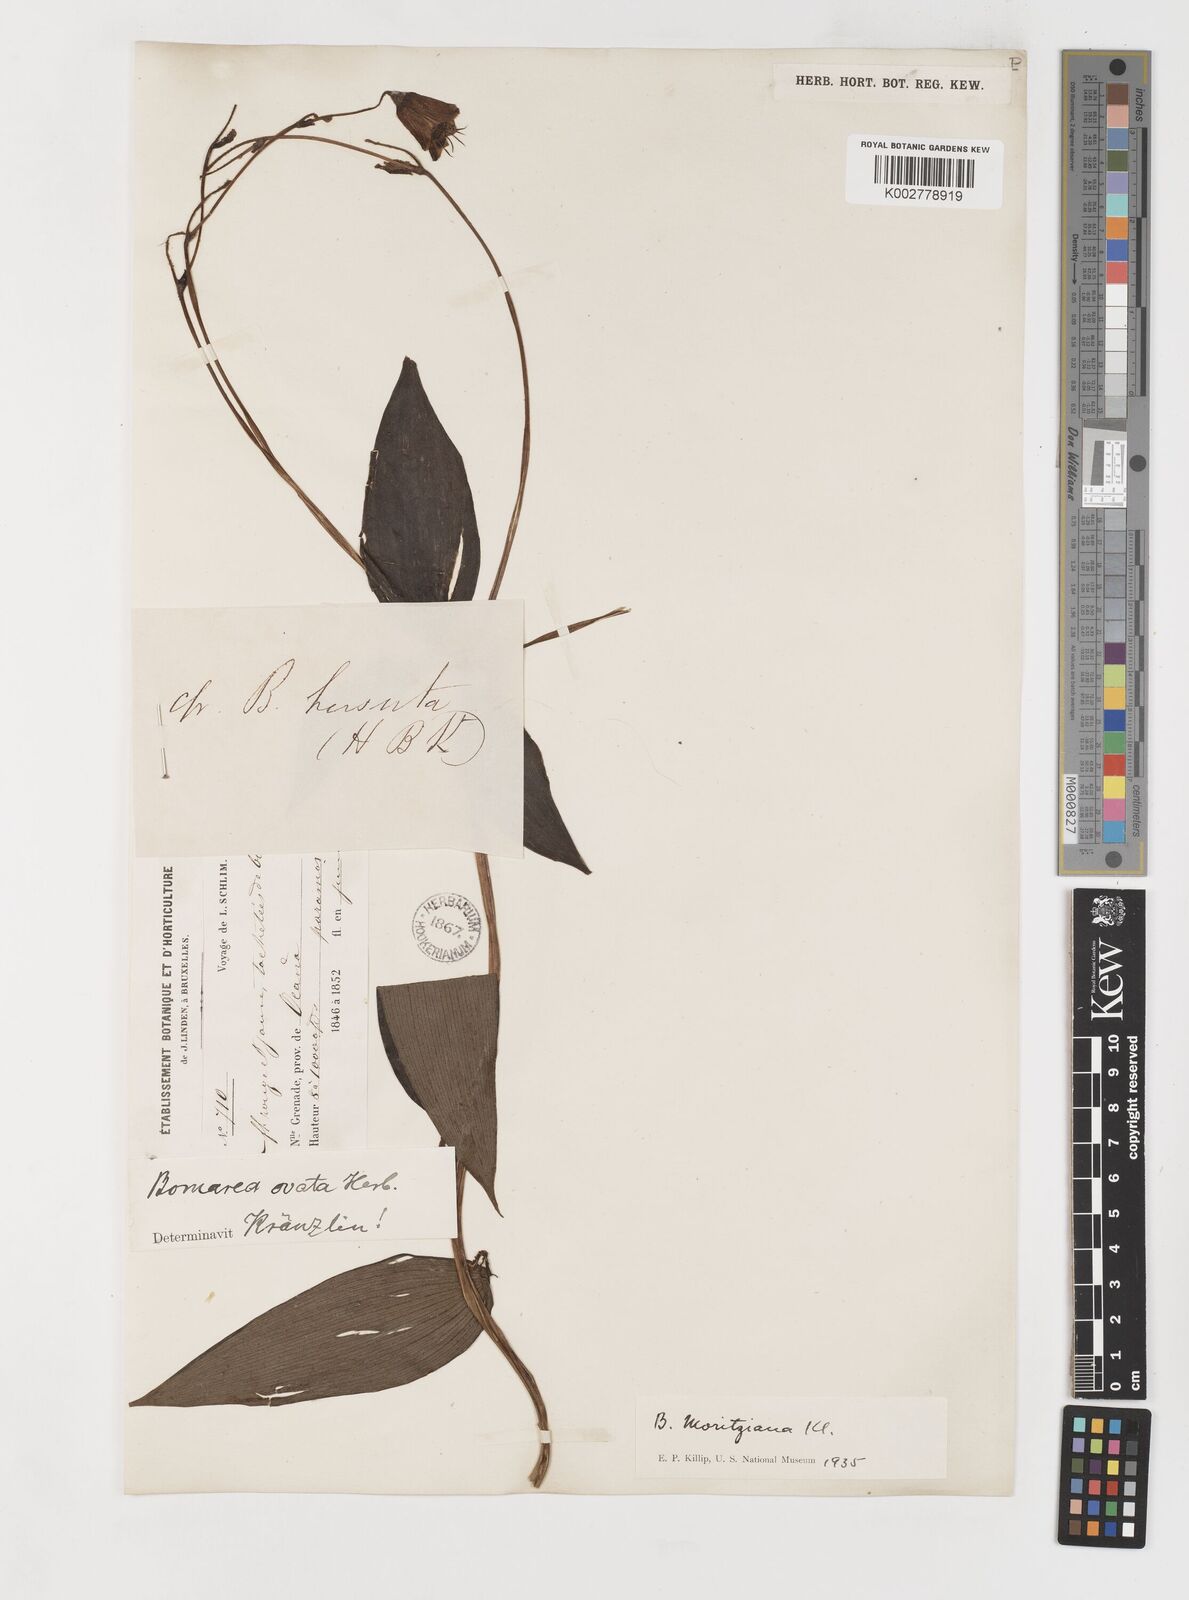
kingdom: Plantae
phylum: Tracheophyta
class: Liliopsida
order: Liliales
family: Alstroemeriaceae
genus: Bomarea
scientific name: Bomarea inaequalis
